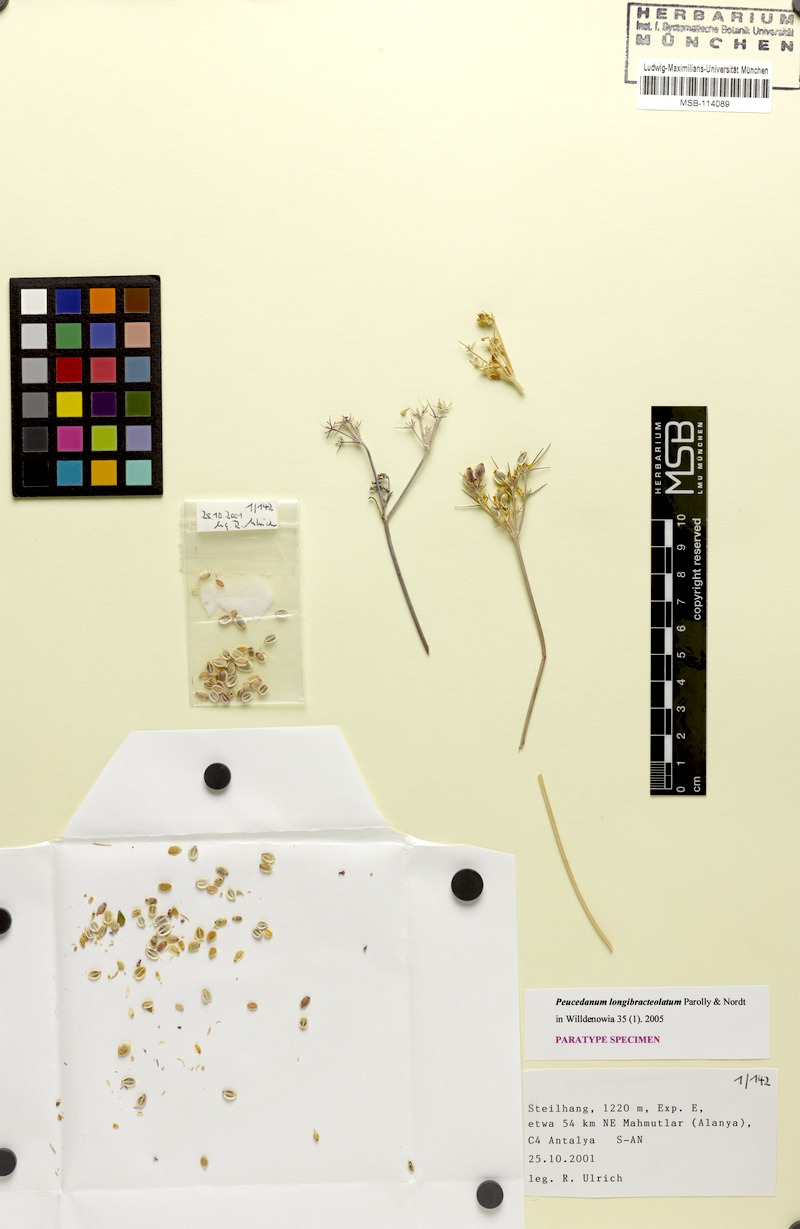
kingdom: Plantae
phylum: Tracheophyta
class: Magnoliopsida
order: Apiales
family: Apiaceae
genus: Dichoropetalum
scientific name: Dichoropetalum longibracteolatum
